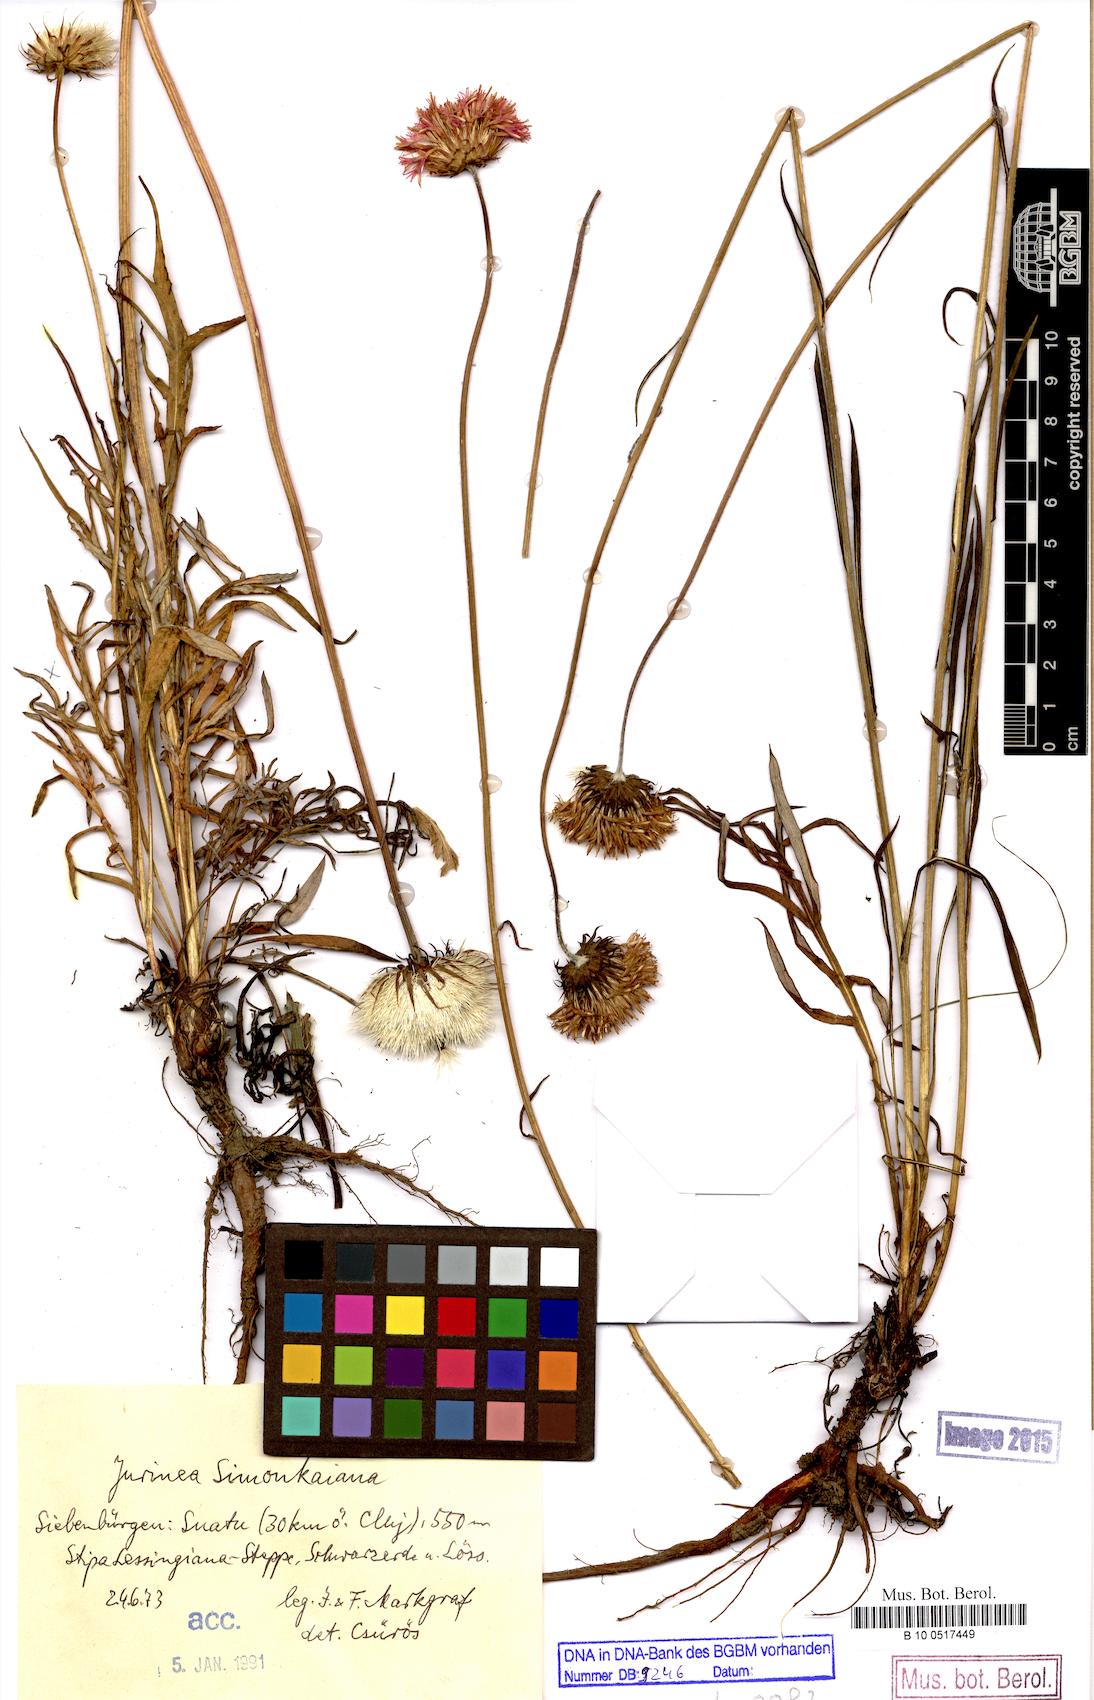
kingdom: Plantae
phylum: Tracheophyta
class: Magnoliopsida
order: Asterales
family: Asteraceae
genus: Jurinea
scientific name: Jurinea transsylvanica
